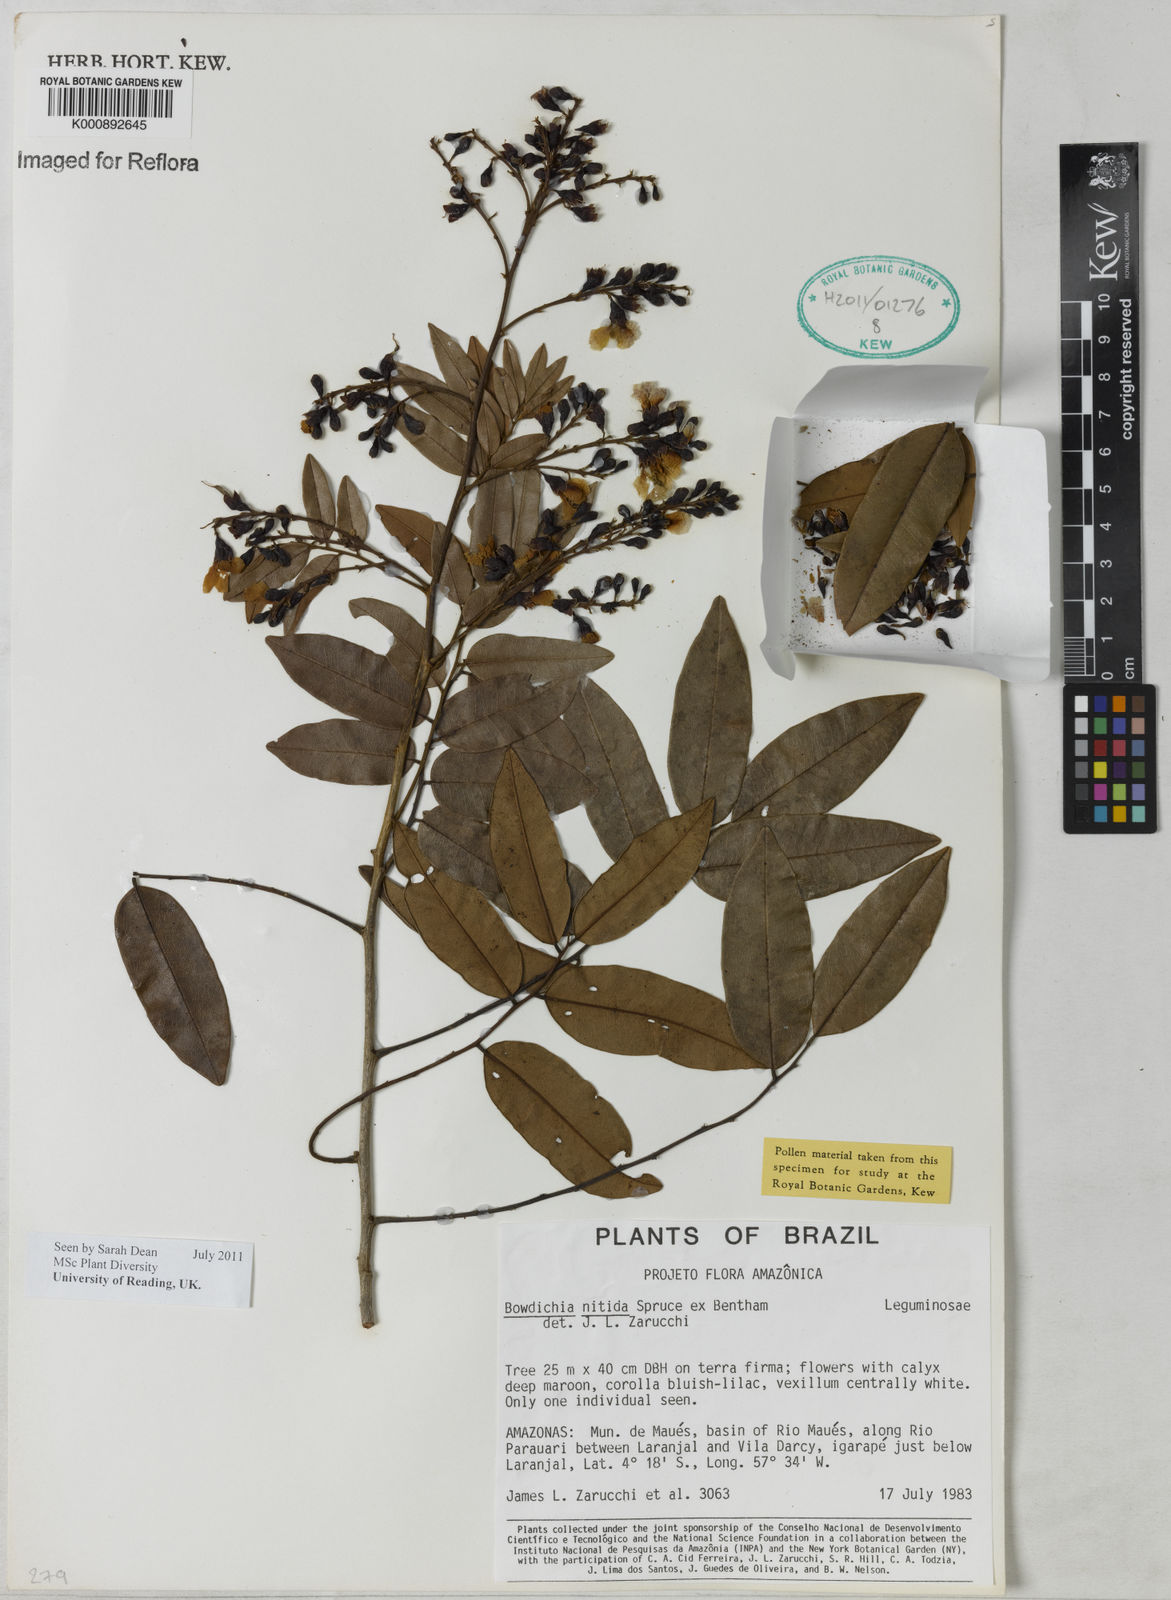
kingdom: Plantae
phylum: Tracheophyta
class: Magnoliopsida
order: Fabales
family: Fabaceae
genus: Bowdichia
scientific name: Bowdichia nitida
